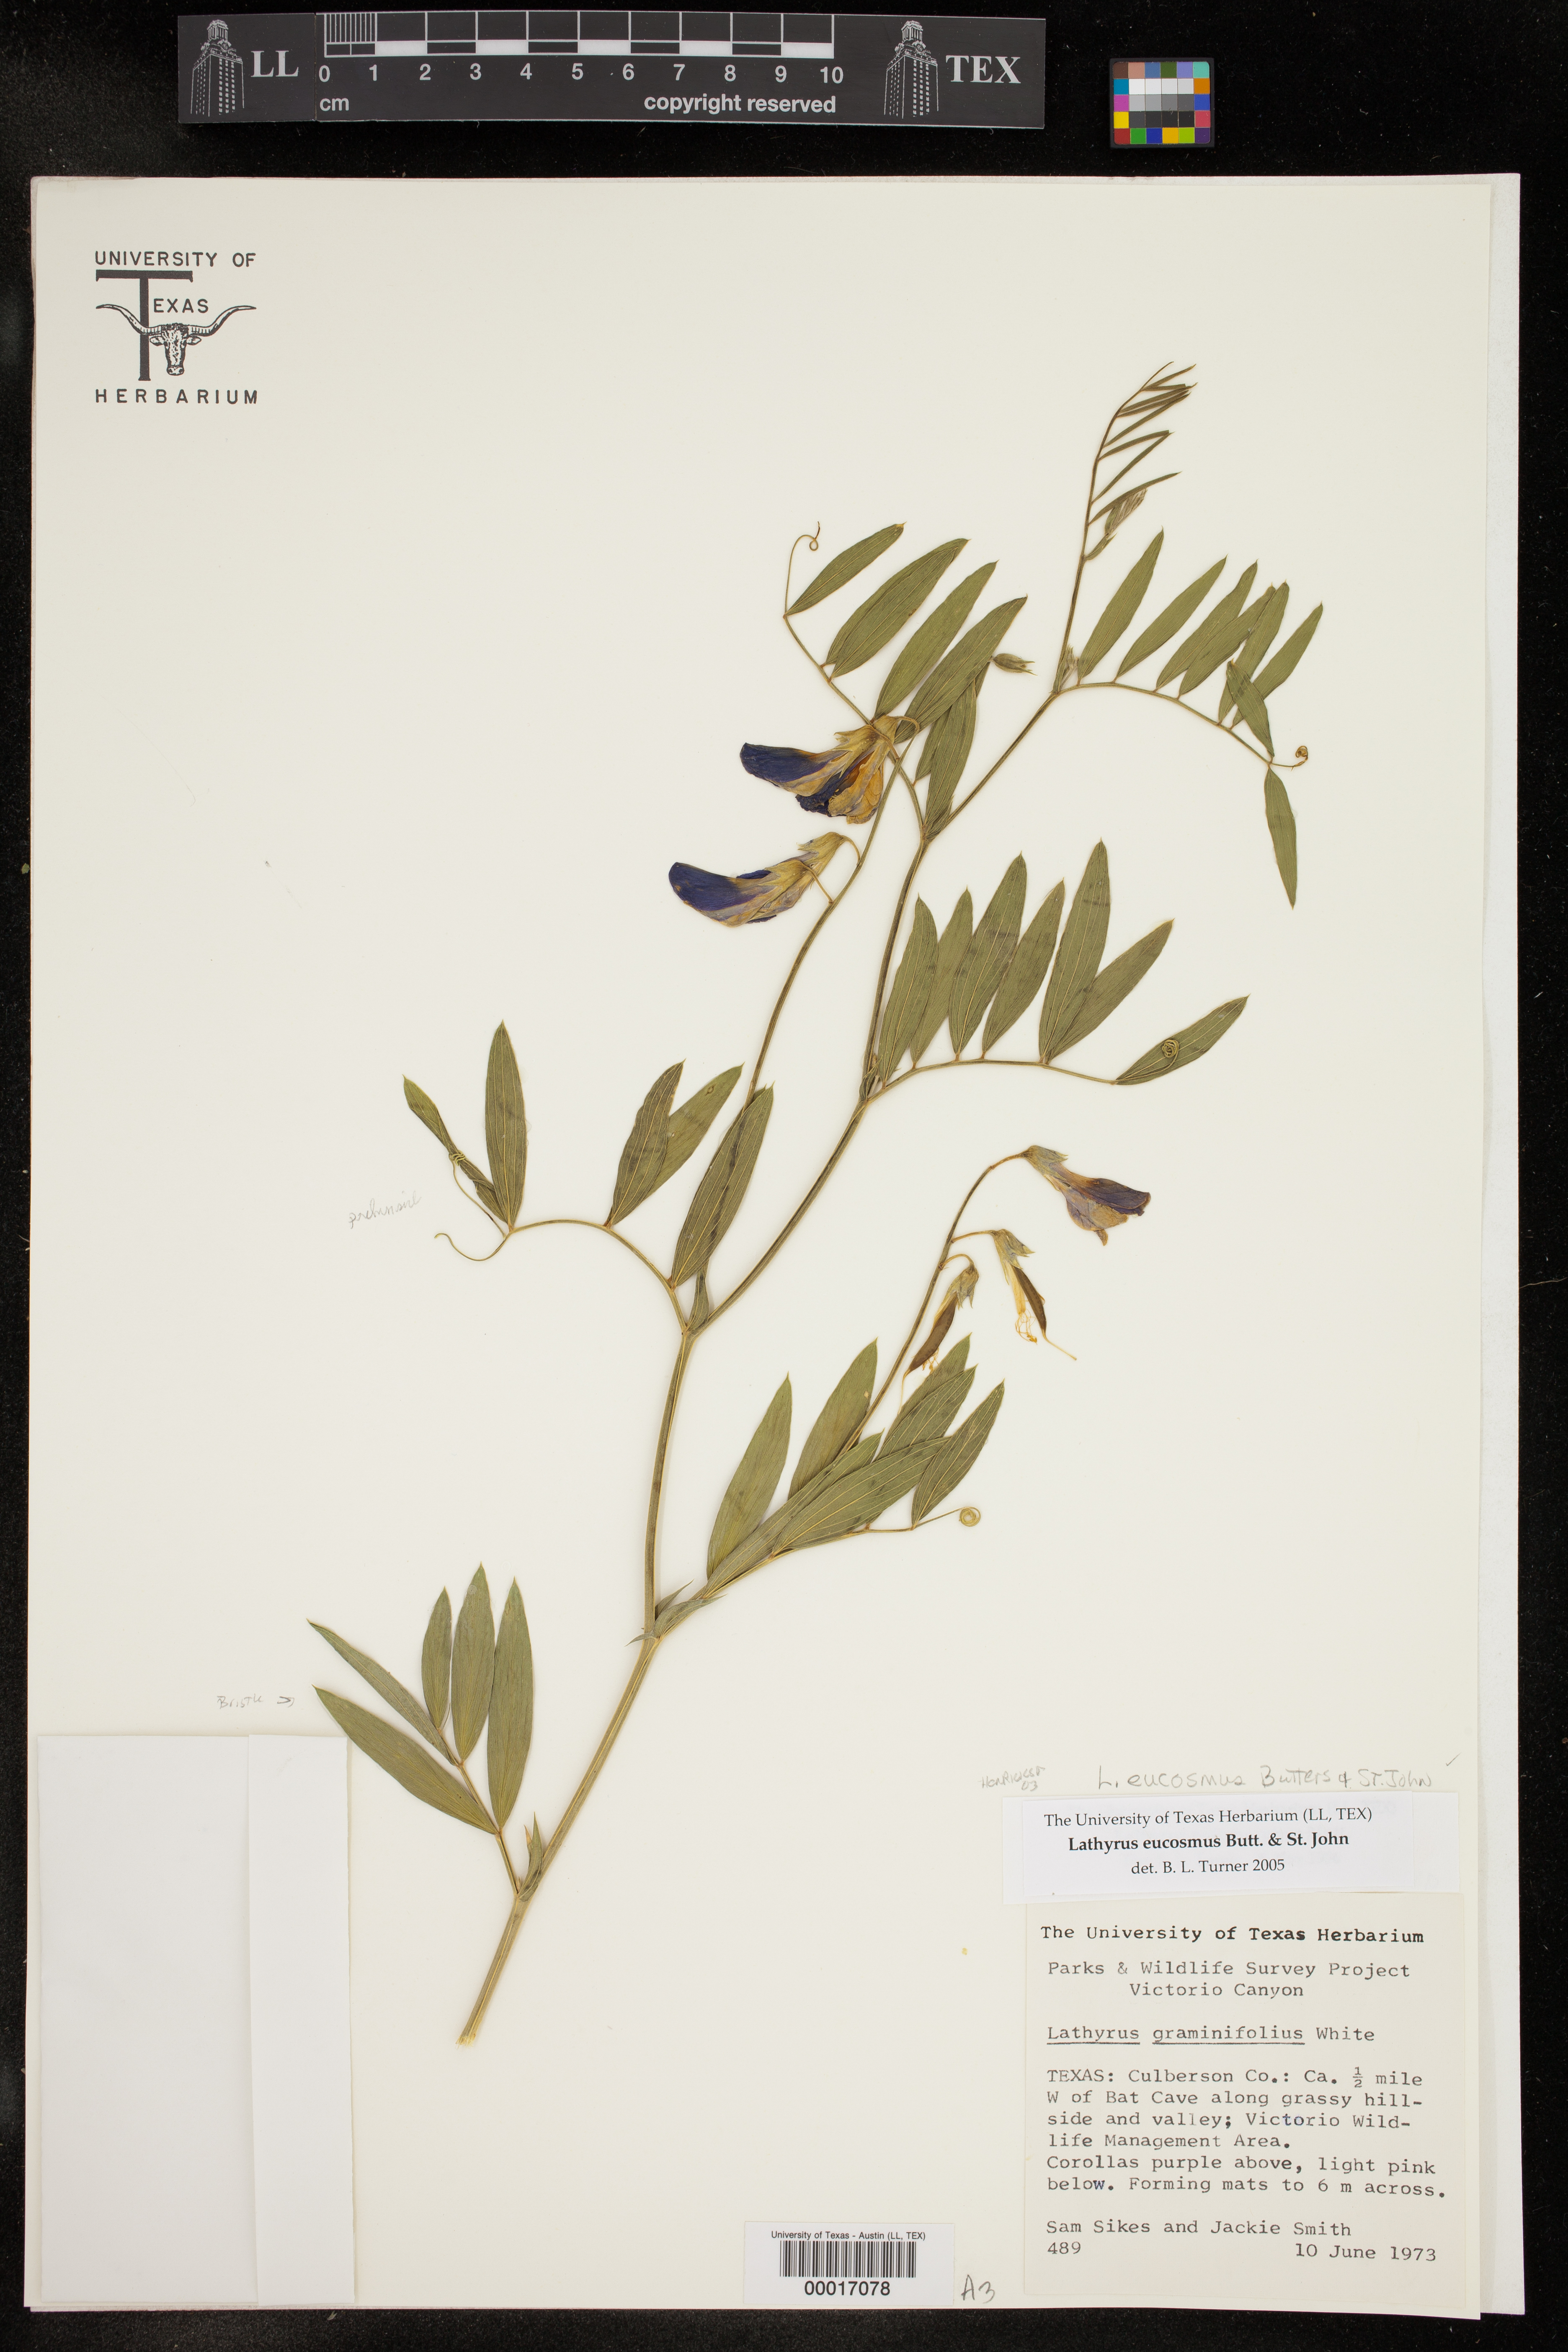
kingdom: Plantae
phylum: Tracheophyta
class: Magnoliopsida
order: Fabales
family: Fabaceae
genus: Lathyrus
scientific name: Lathyrus eucosmus
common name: Semmly vetchling
